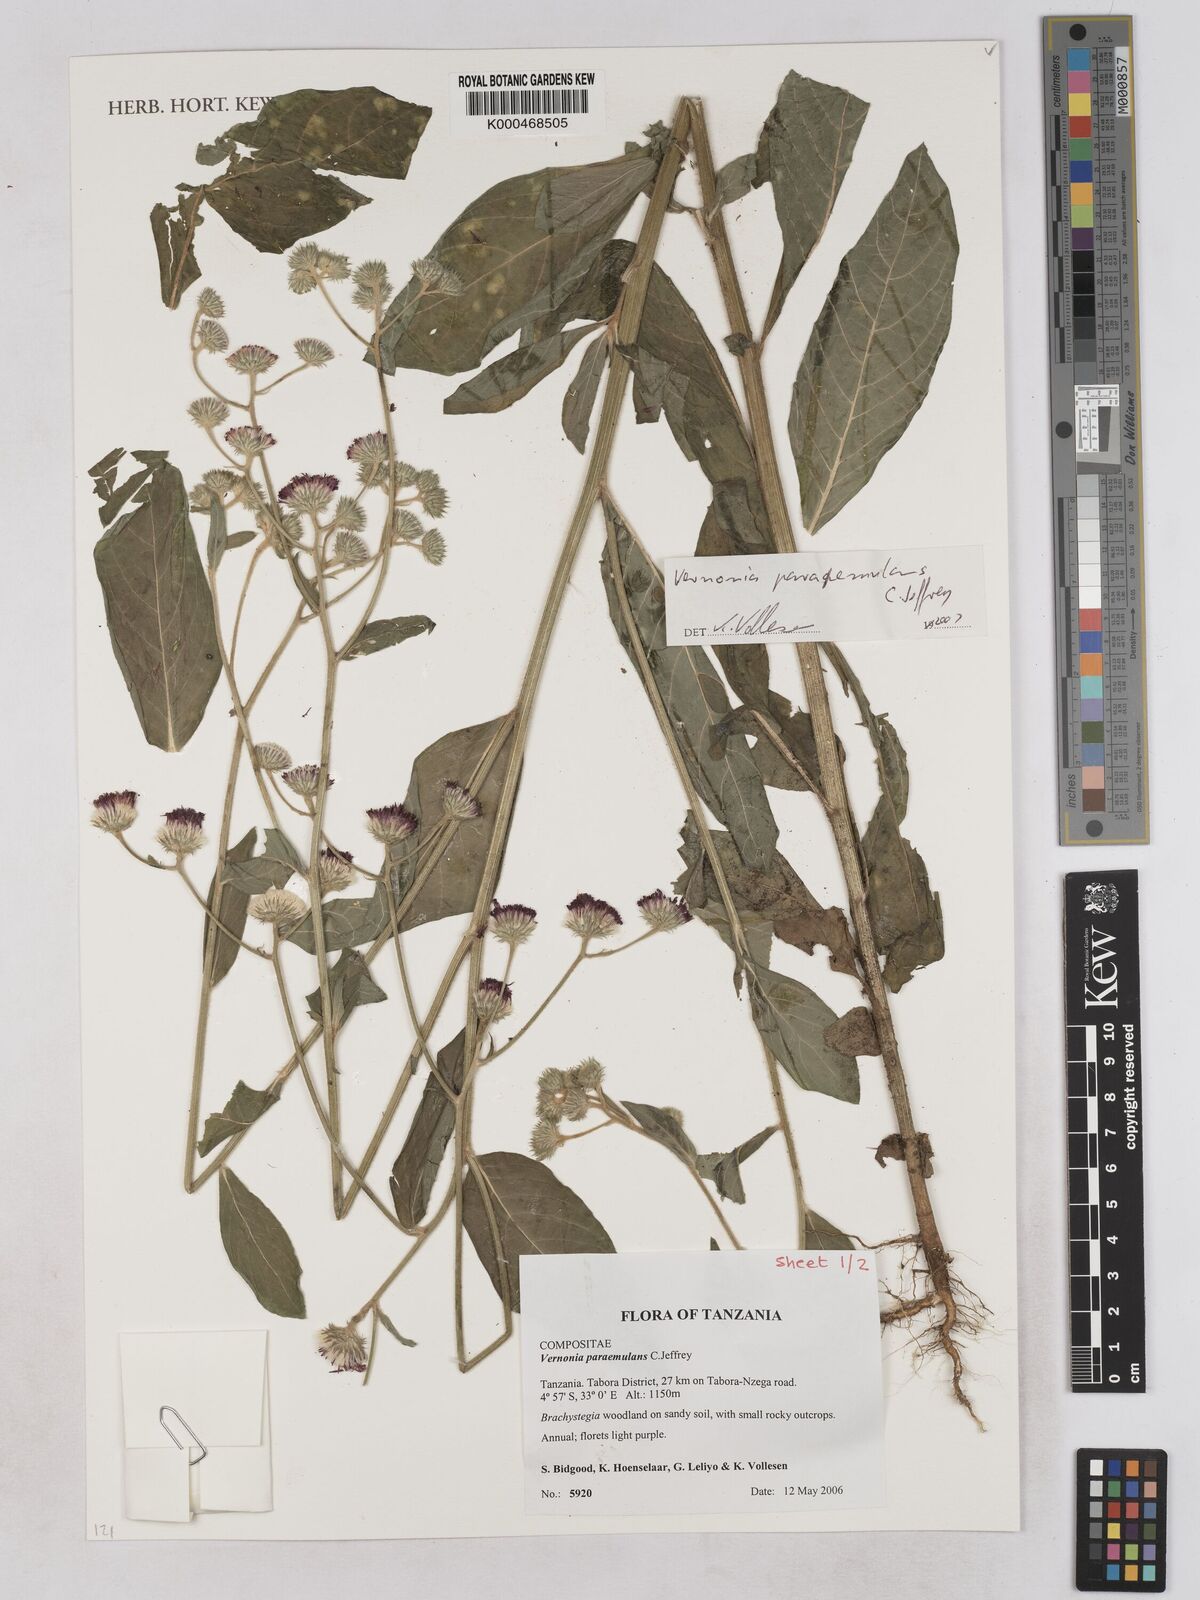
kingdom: Plantae
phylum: Tracheophyta
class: Magnoliopsida
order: Asterales
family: Asteraceae
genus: Vernoniastrum
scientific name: Vernoniastrum paraemulans
